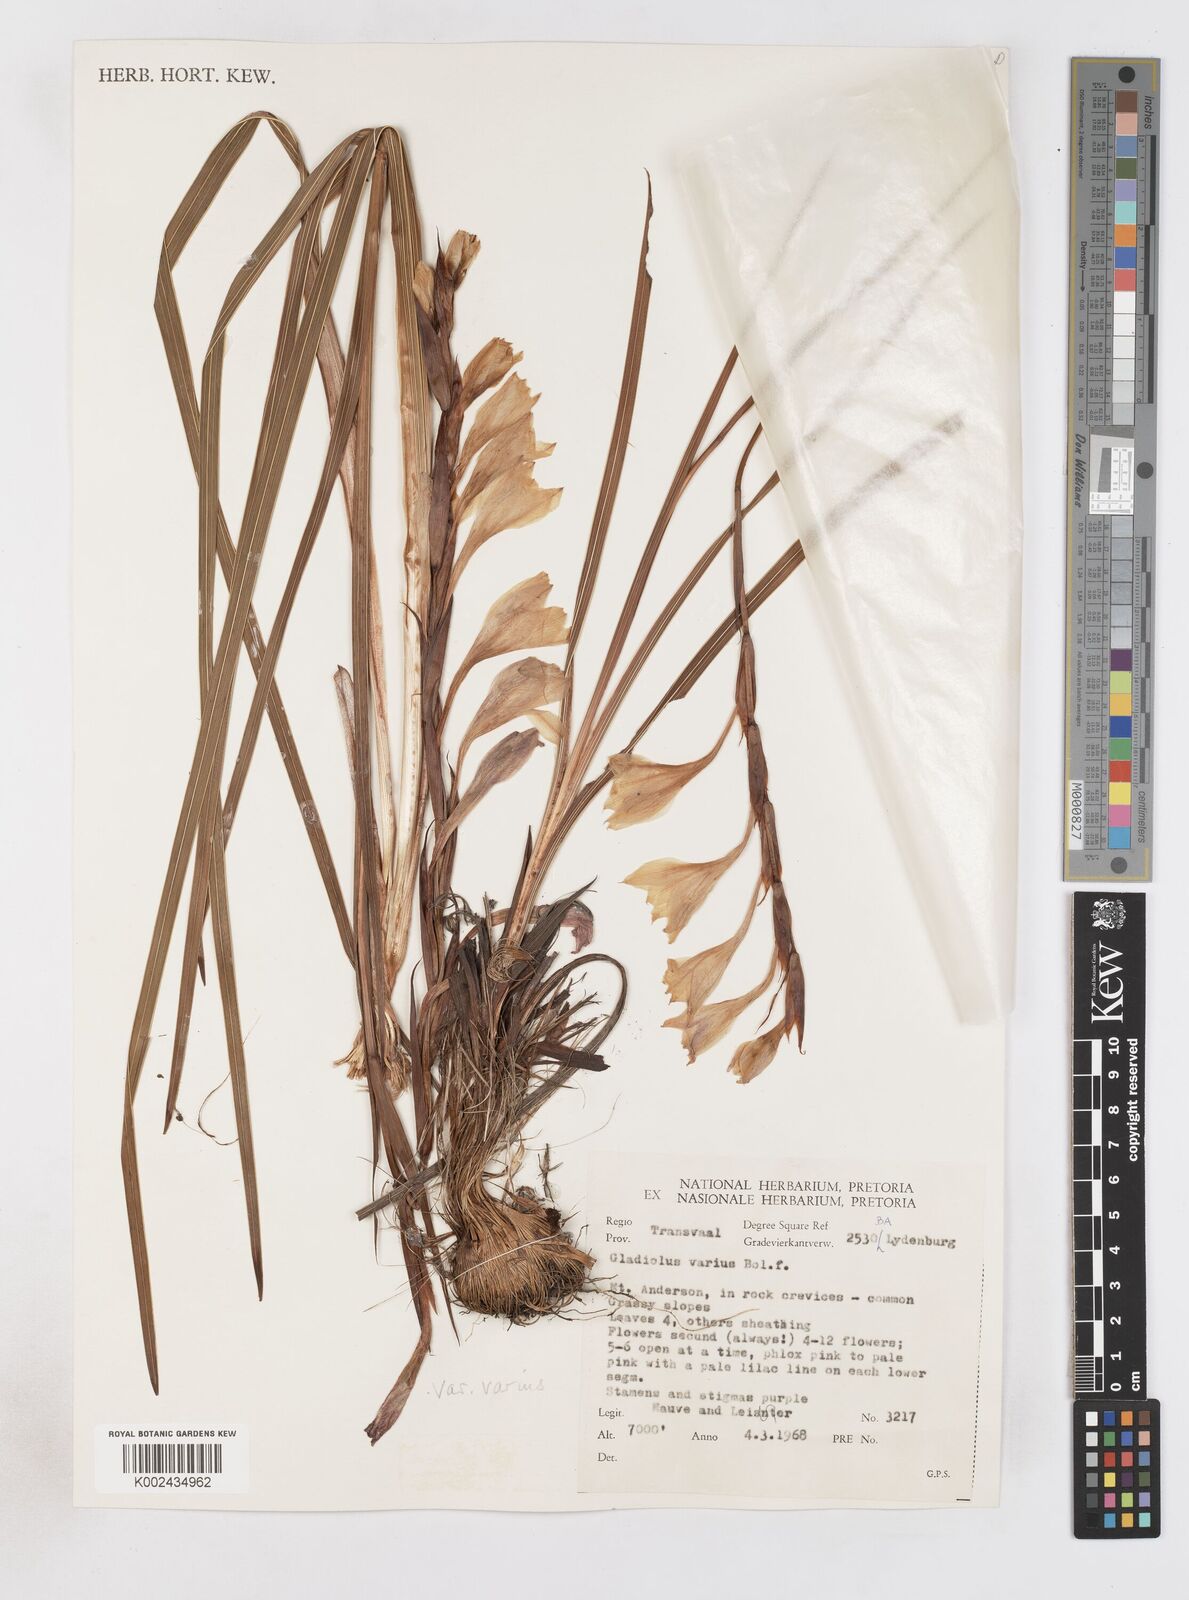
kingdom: Plantae
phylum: Tracheophyta
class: Liliopsida
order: Asparagales
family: Iridaceae
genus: Gladiolus
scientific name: Gladiolus varius
